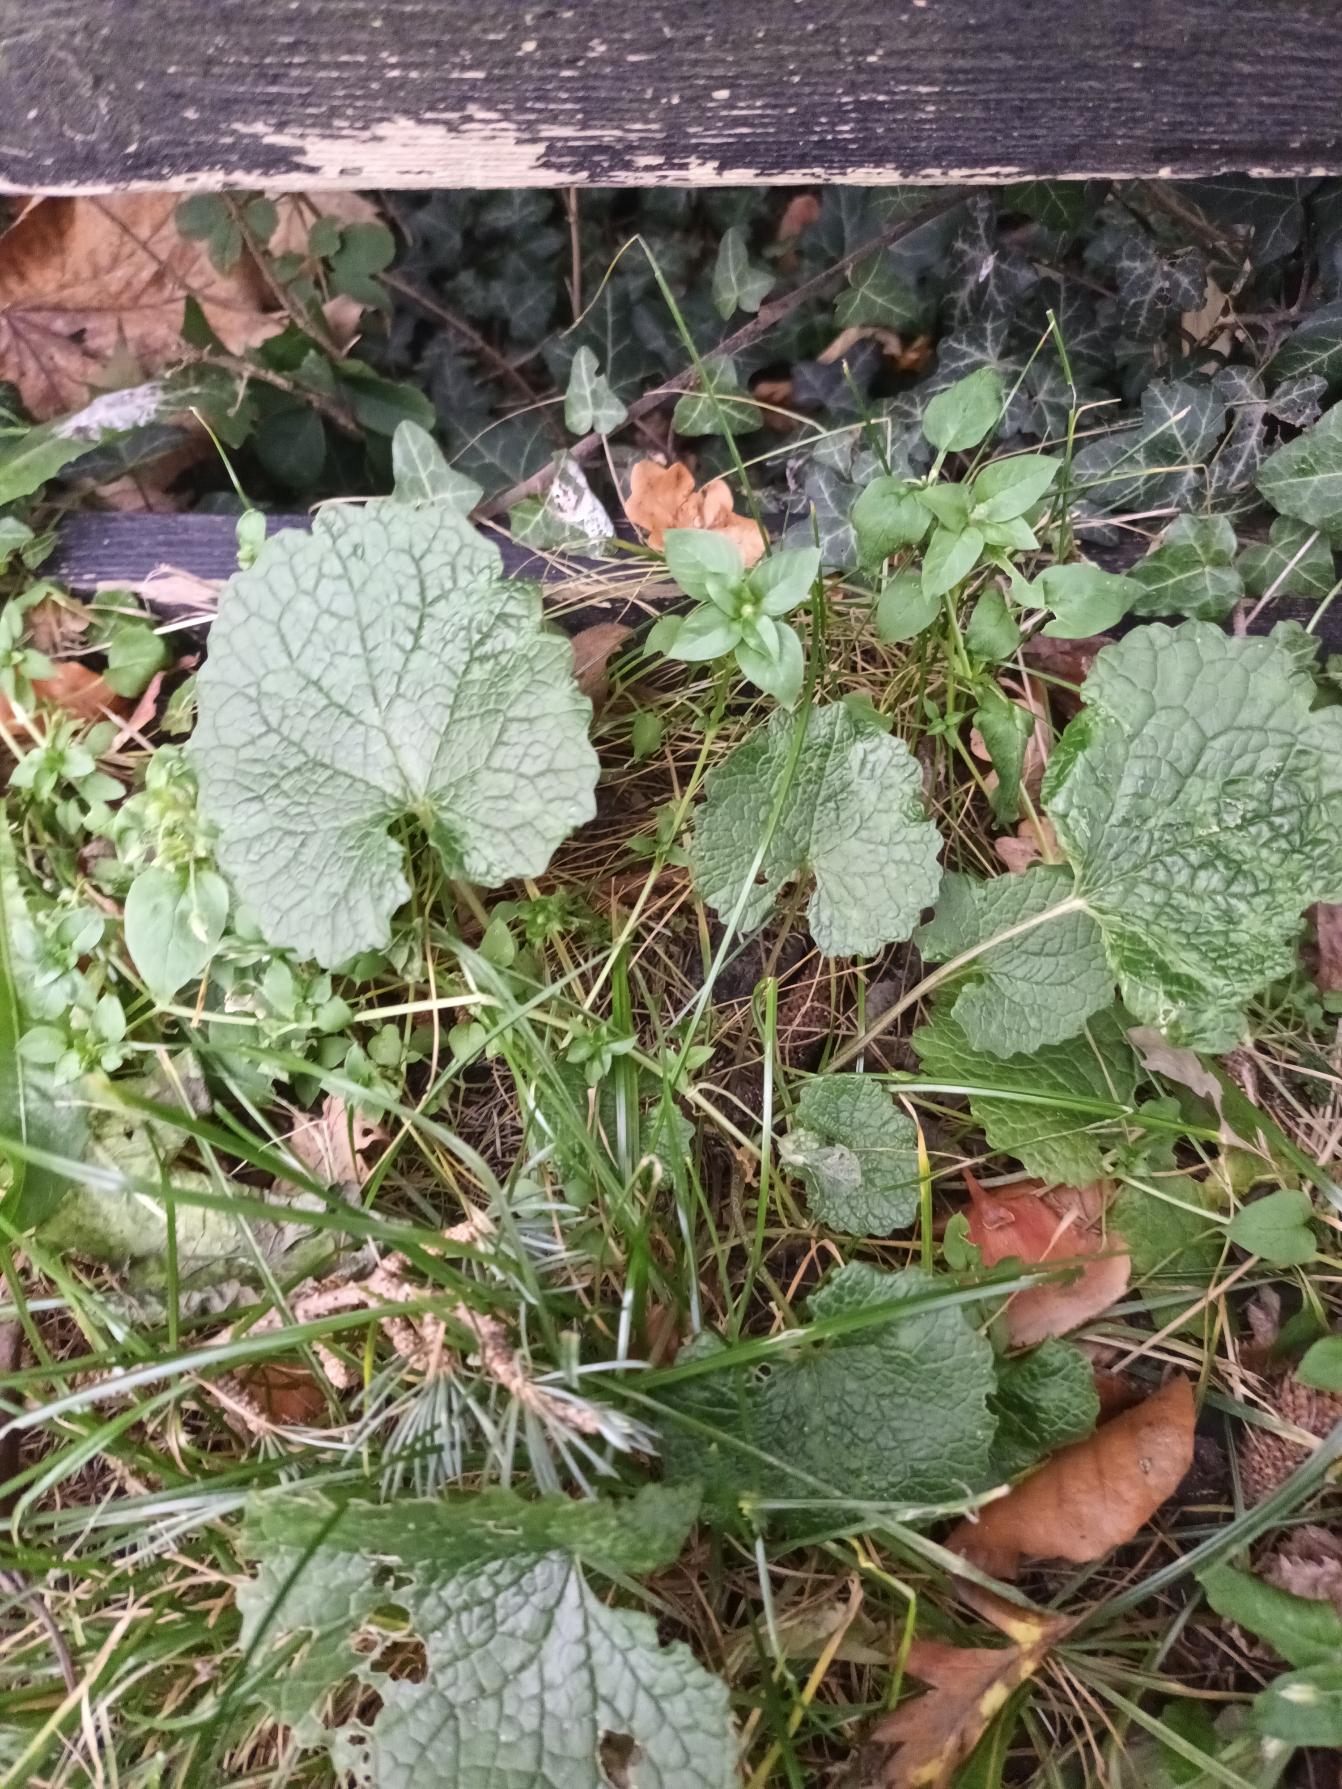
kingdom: Plantae
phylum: Tracheophyta
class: Magnoliopsida
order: Brassicales
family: Brassicaceae
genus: Alliaria
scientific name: Alliaria petiolata
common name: Løgkarse
